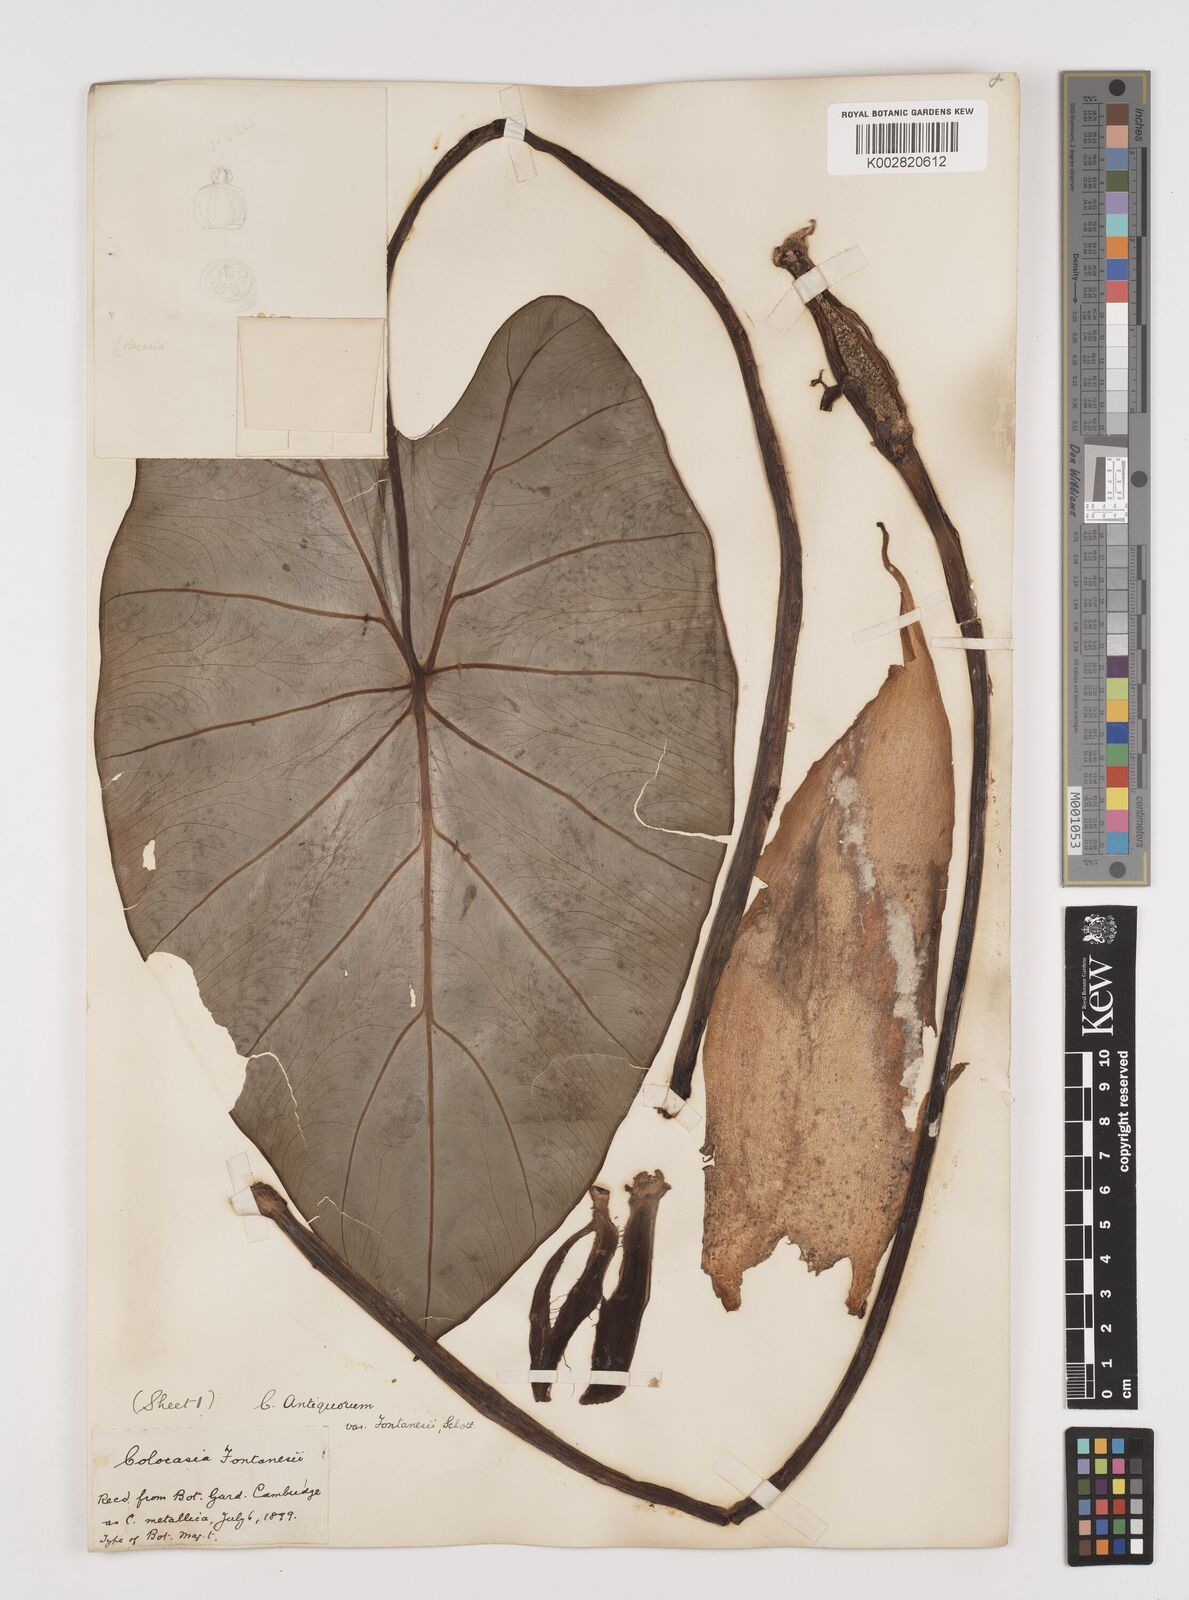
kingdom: Plantae
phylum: Tracheophyta
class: Liliopsida
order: Alismatales
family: Araceae
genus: Colocasia
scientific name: Colocasia esculenta
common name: Taro
